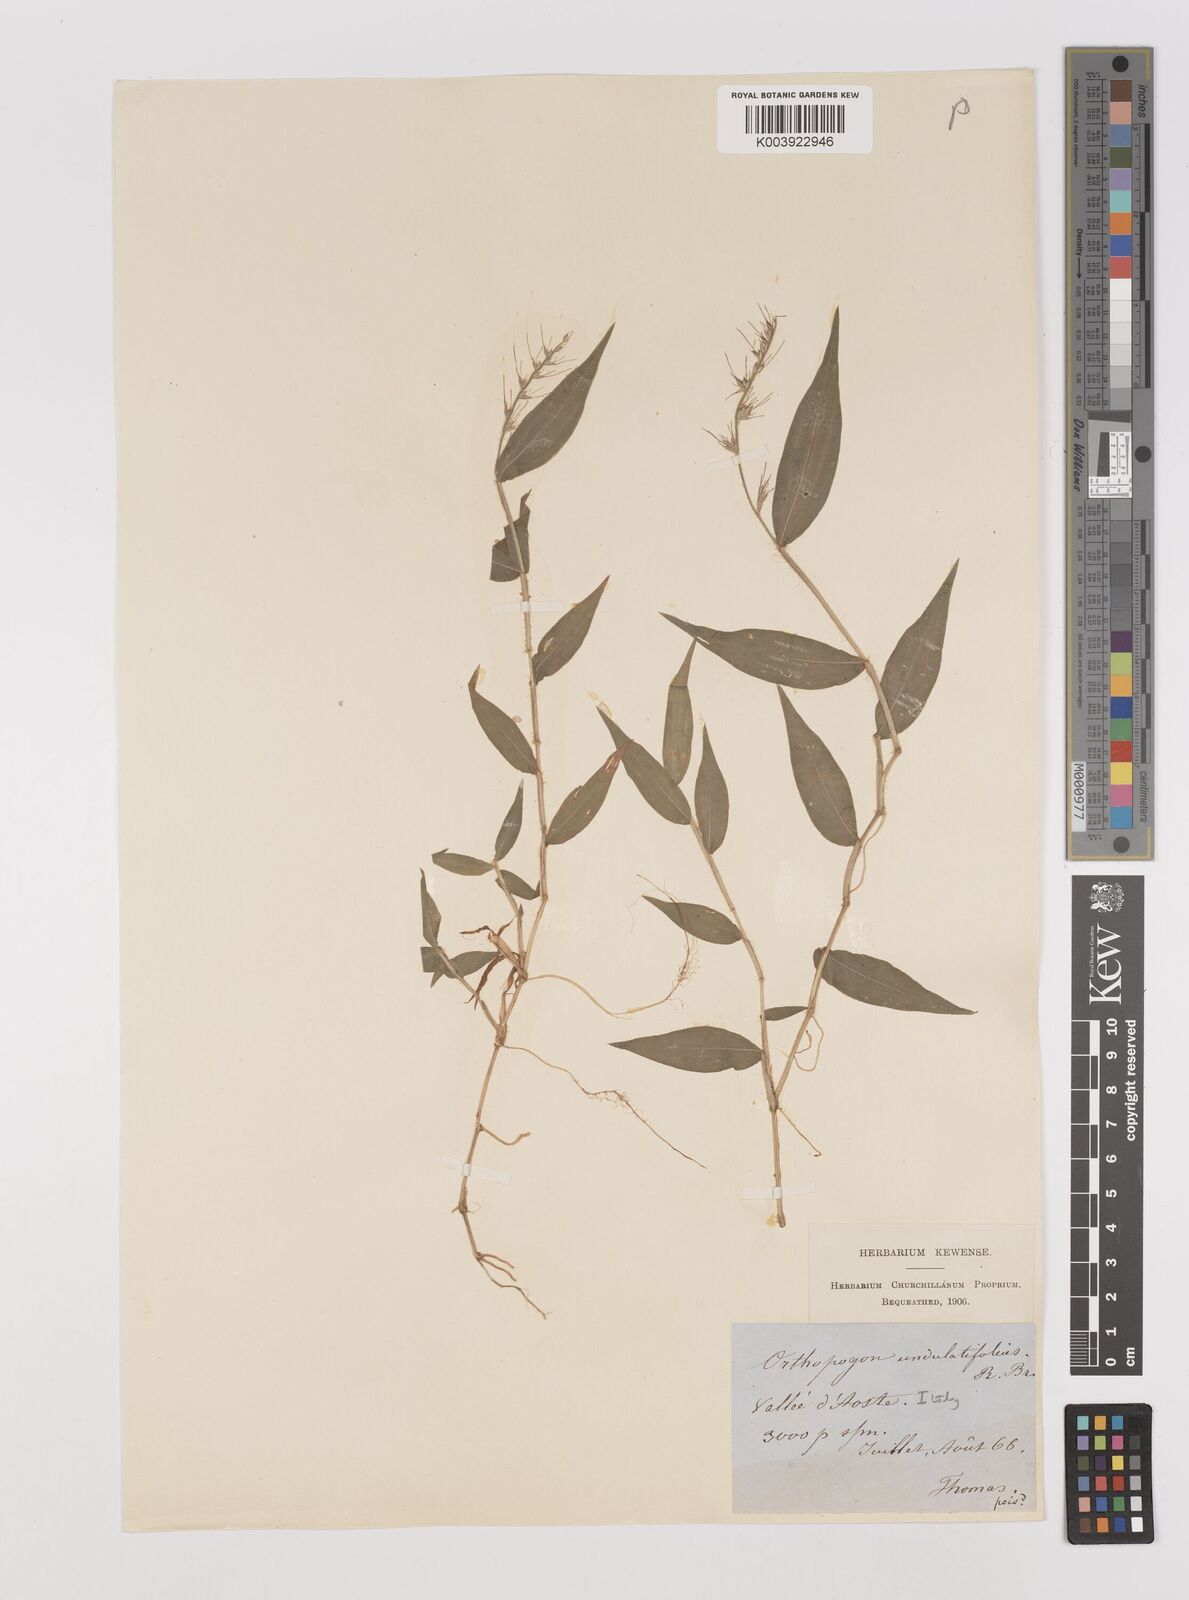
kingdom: Plantae
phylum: Tracheophyta
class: Liliopsida
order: Poales
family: Poaceae
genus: Oplismenus
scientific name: Oplismenus undulatifolius
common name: Wavyleaf basketgrass
